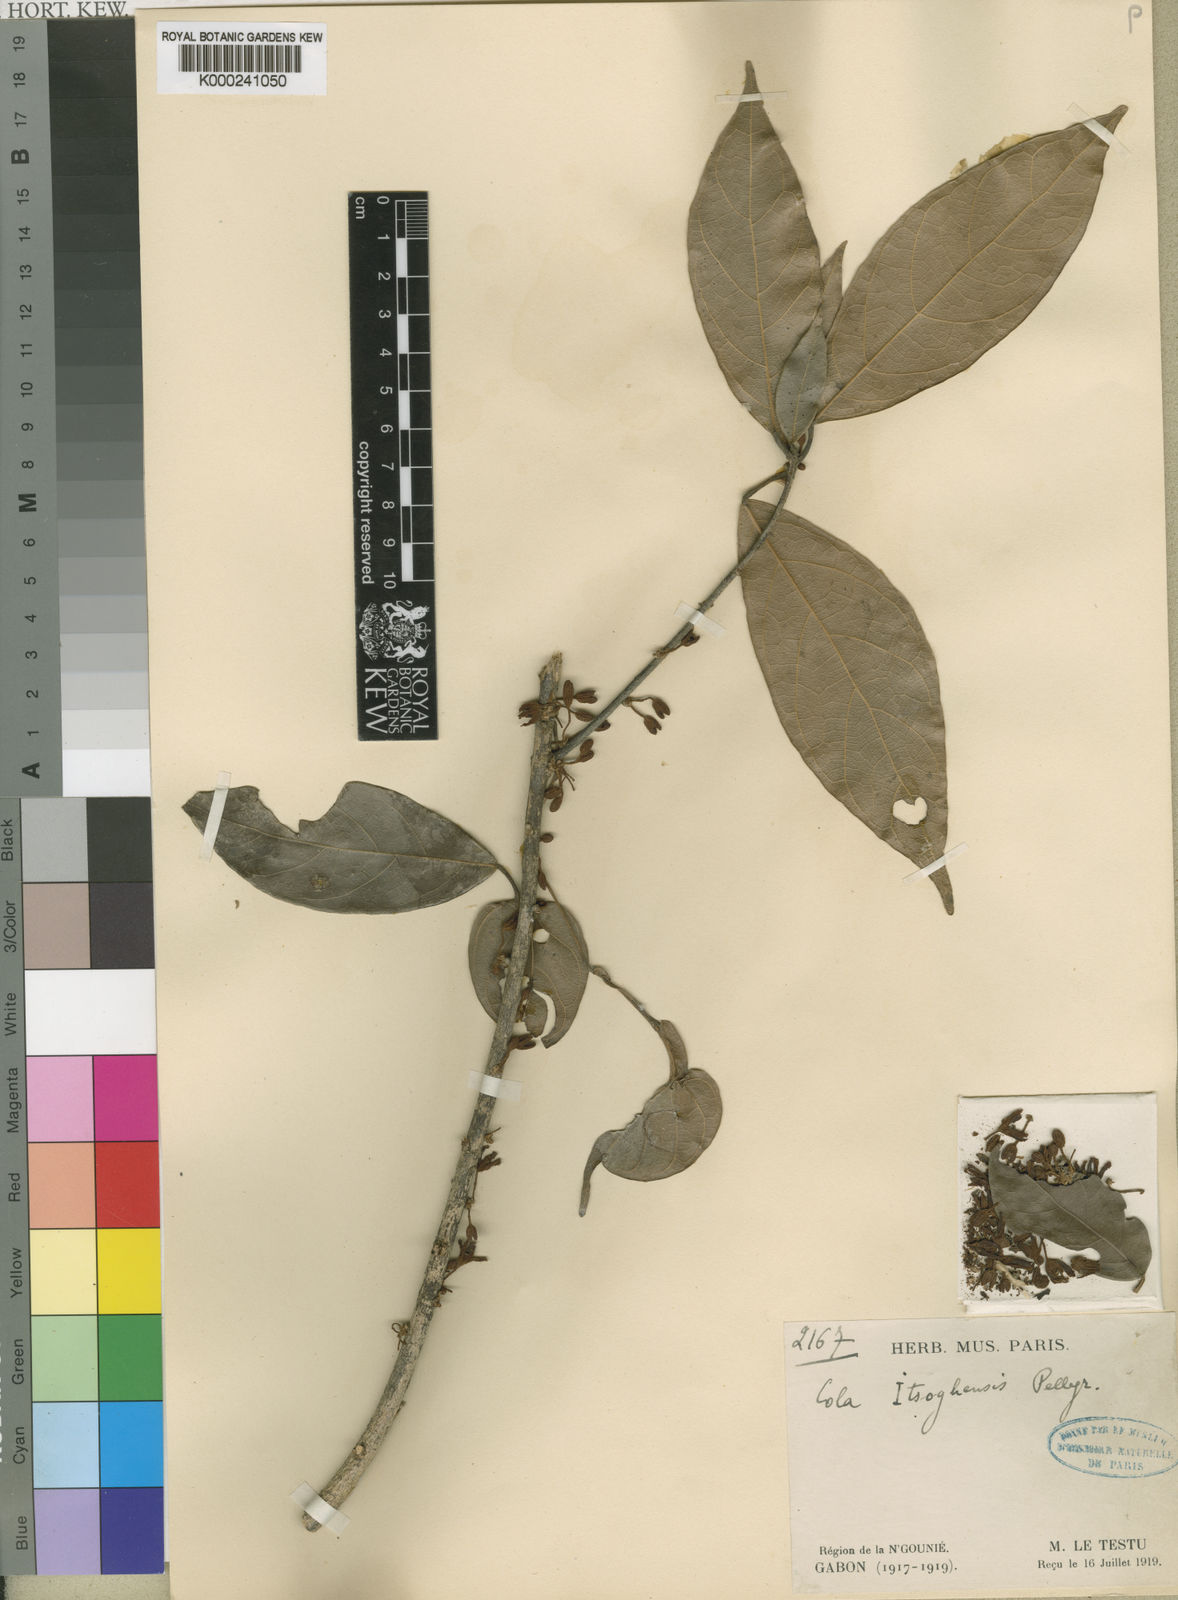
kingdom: Plantae
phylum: Tracheophyta
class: Magnoliopsida
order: Malvales
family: Malvaceae
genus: Cola
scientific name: Cola griseiflora
